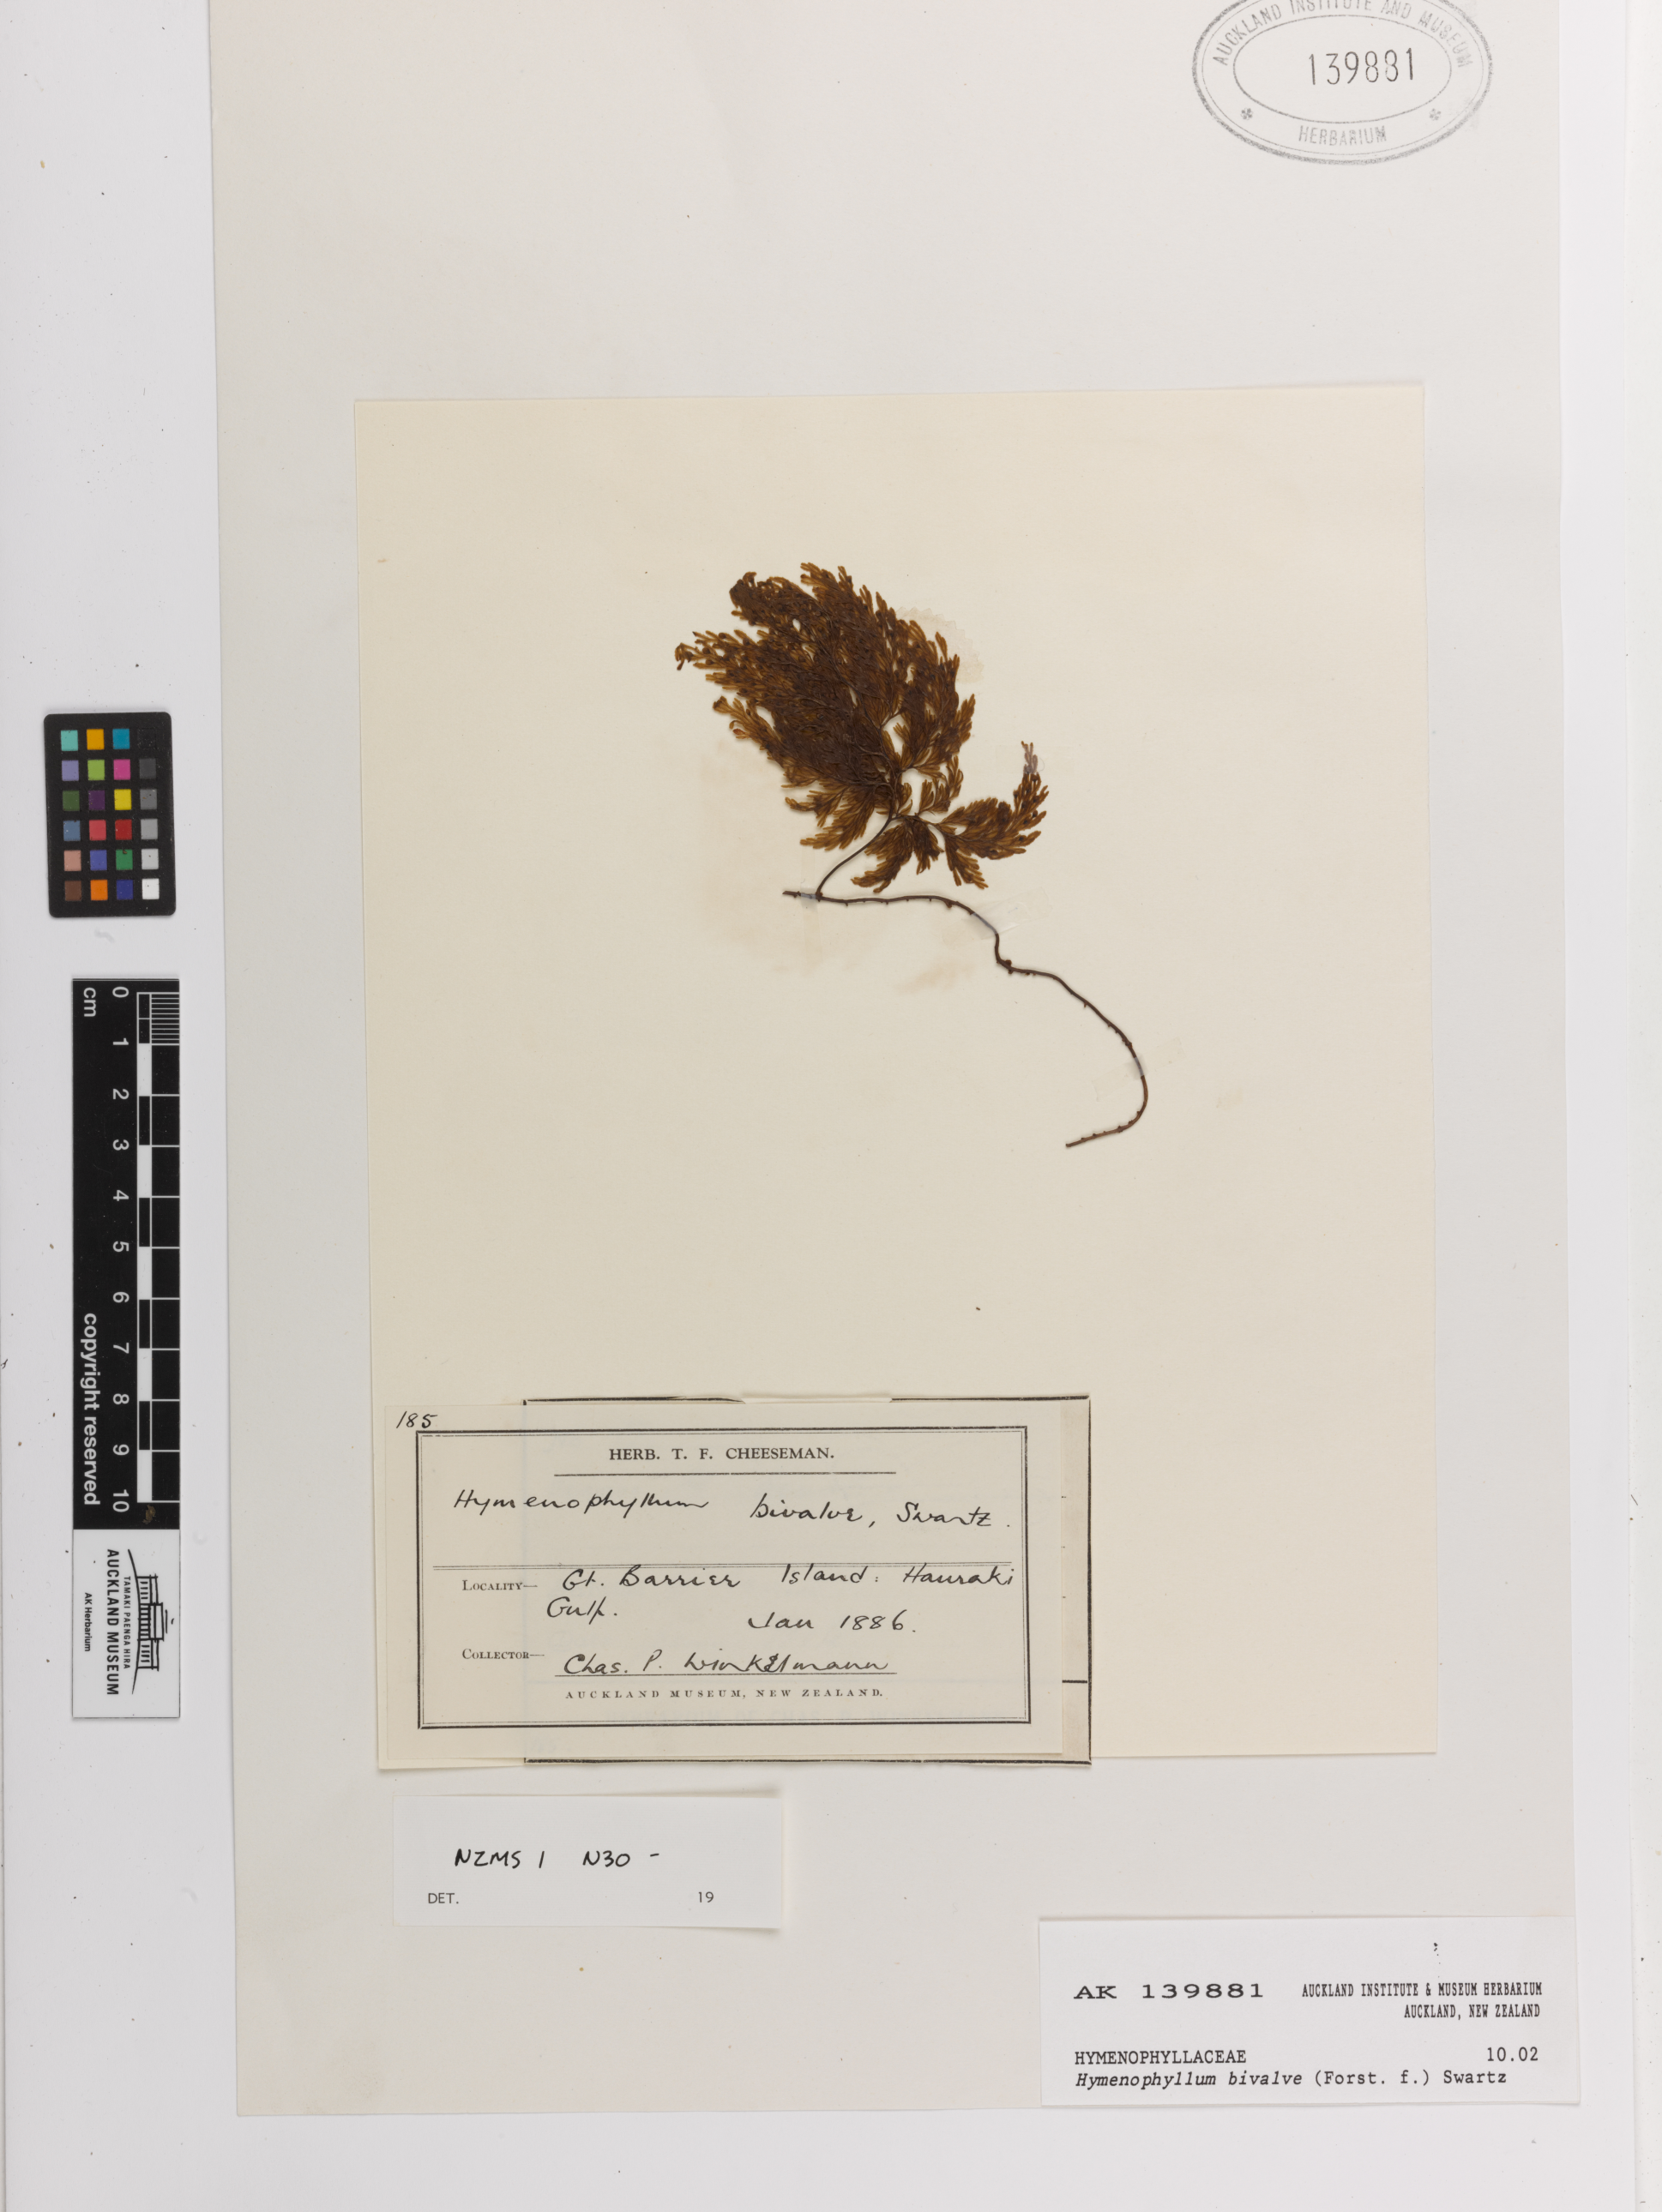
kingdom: Plantae
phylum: Tracheophyta
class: Polypodiopsida
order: Hymenophyllales
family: Hymenophyllaceae
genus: Hymenophyllum
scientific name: Hymenophyllum bivalve
